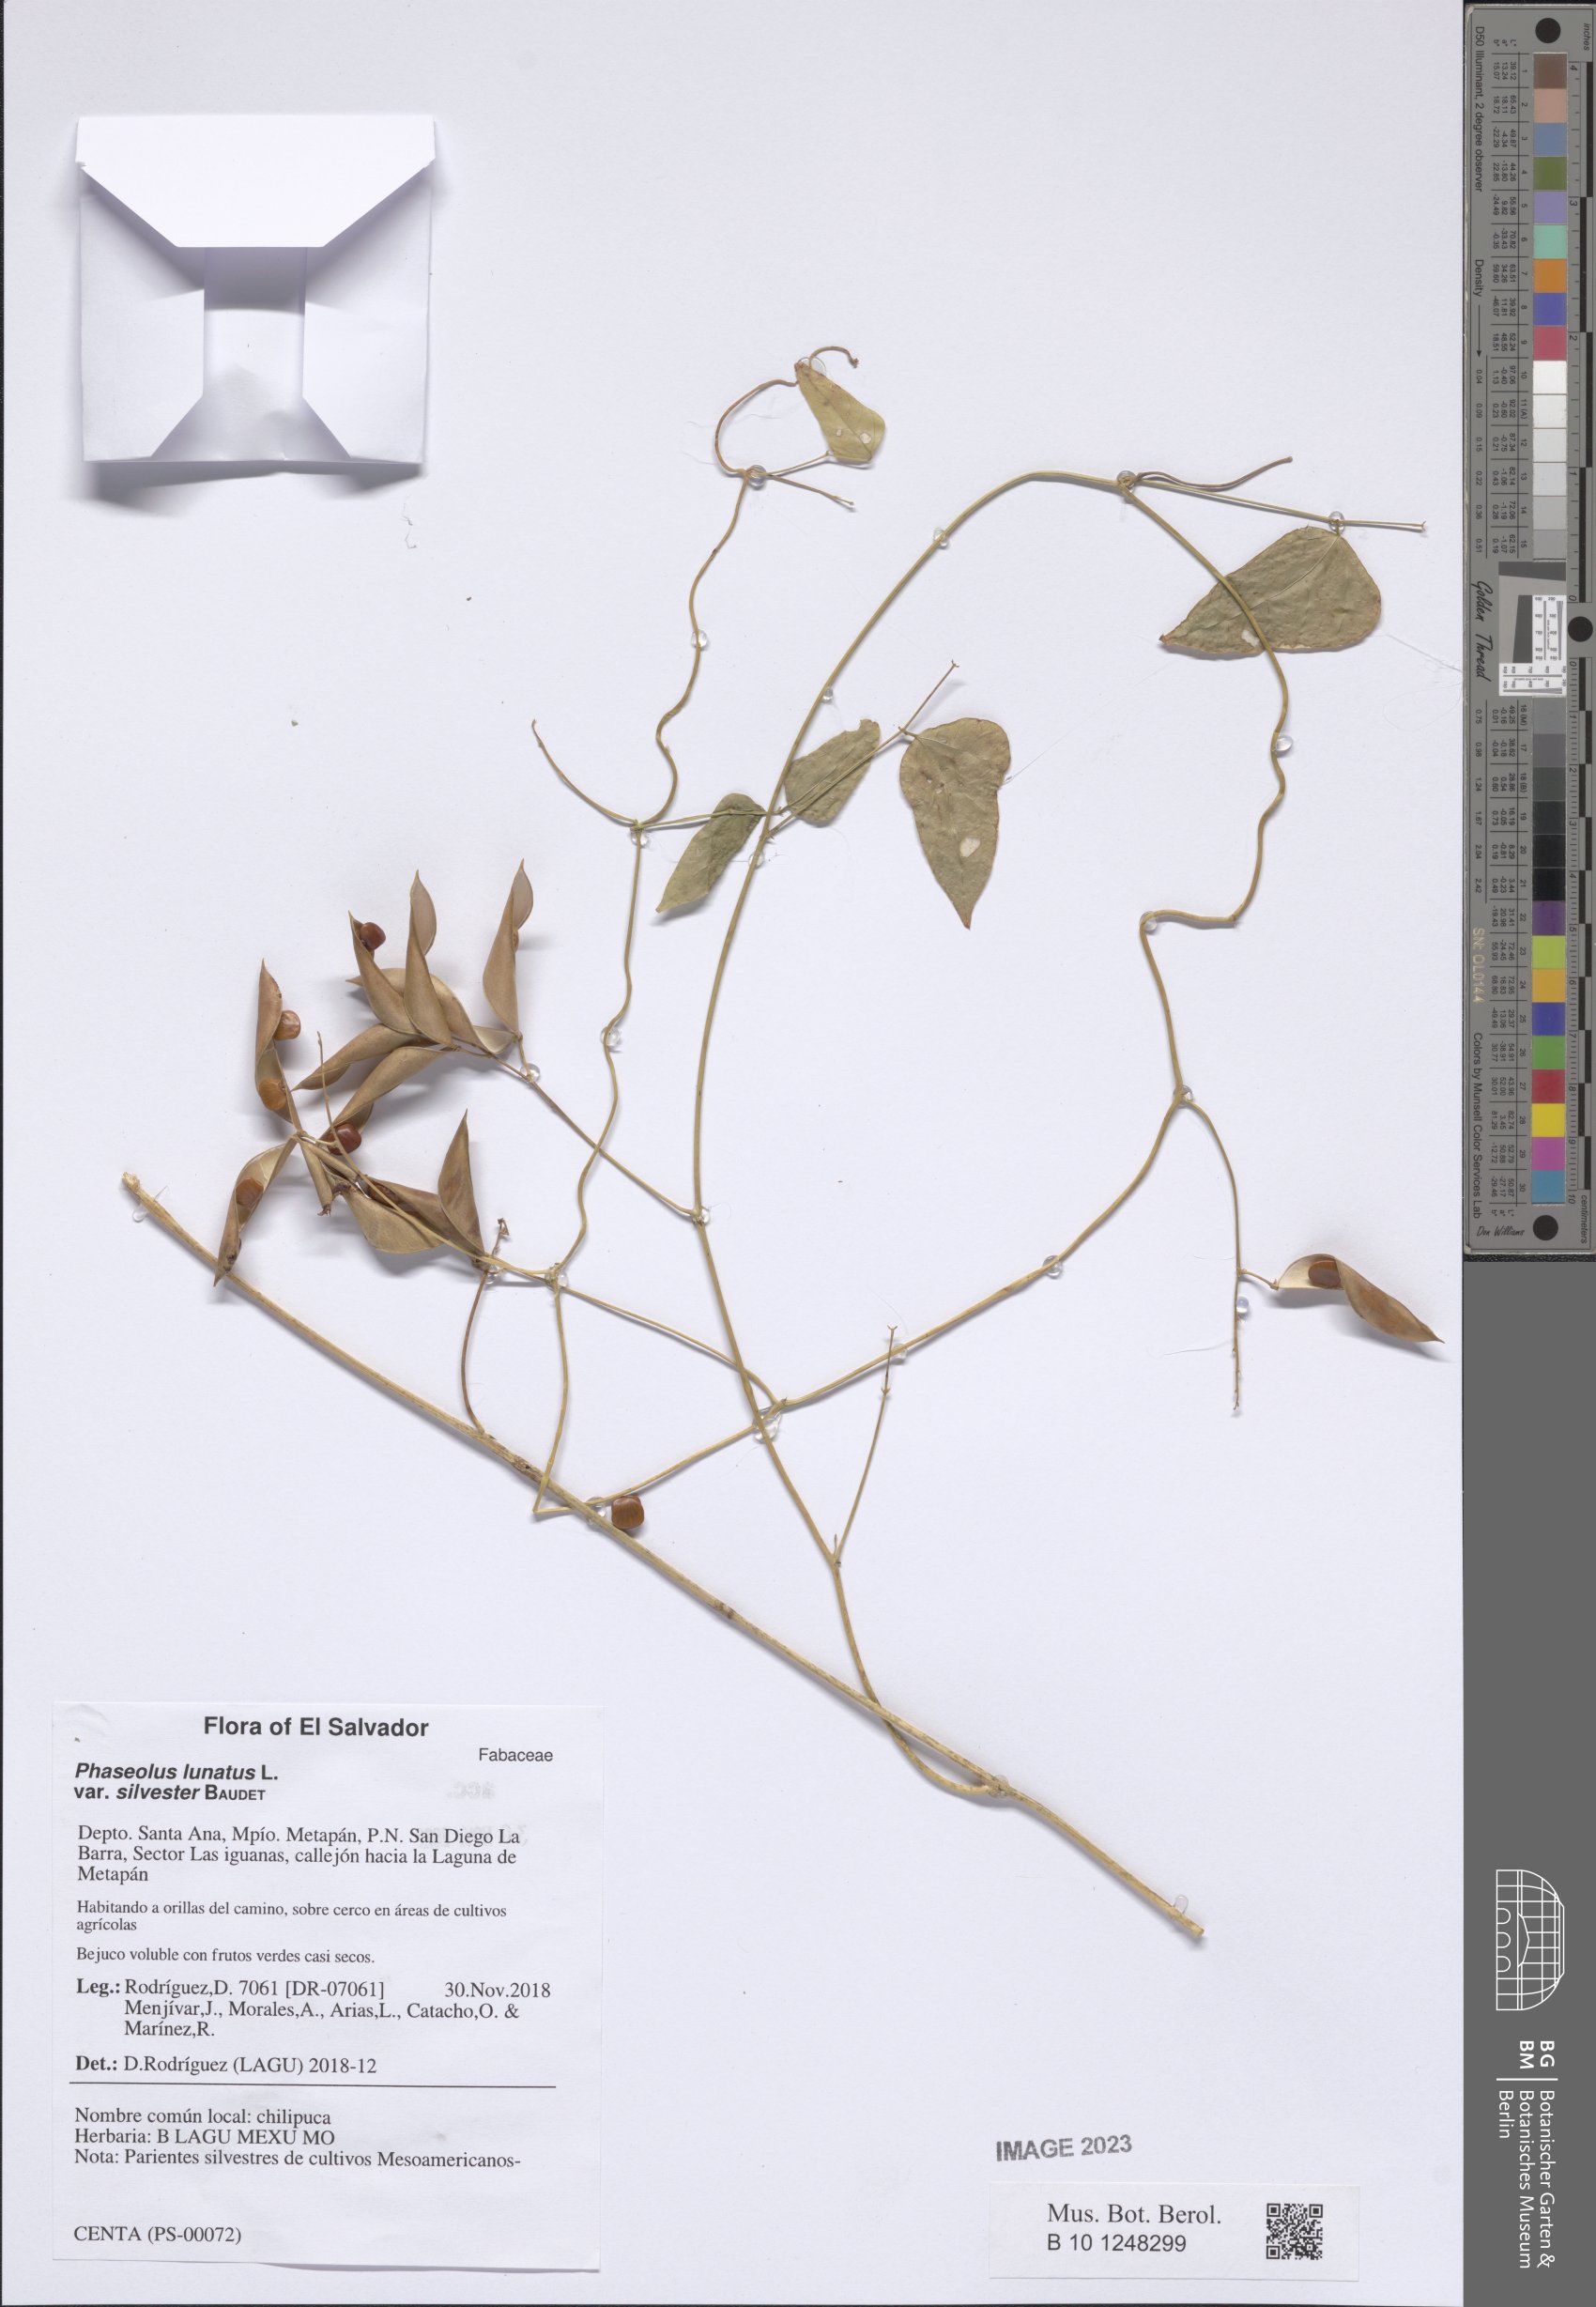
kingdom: Plantae
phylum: Tracheophyta
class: Magnoliopsida
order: Fabales
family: Fabaceae
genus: Phaseolus
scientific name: Phaseolus lunatus
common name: Sieva bean
